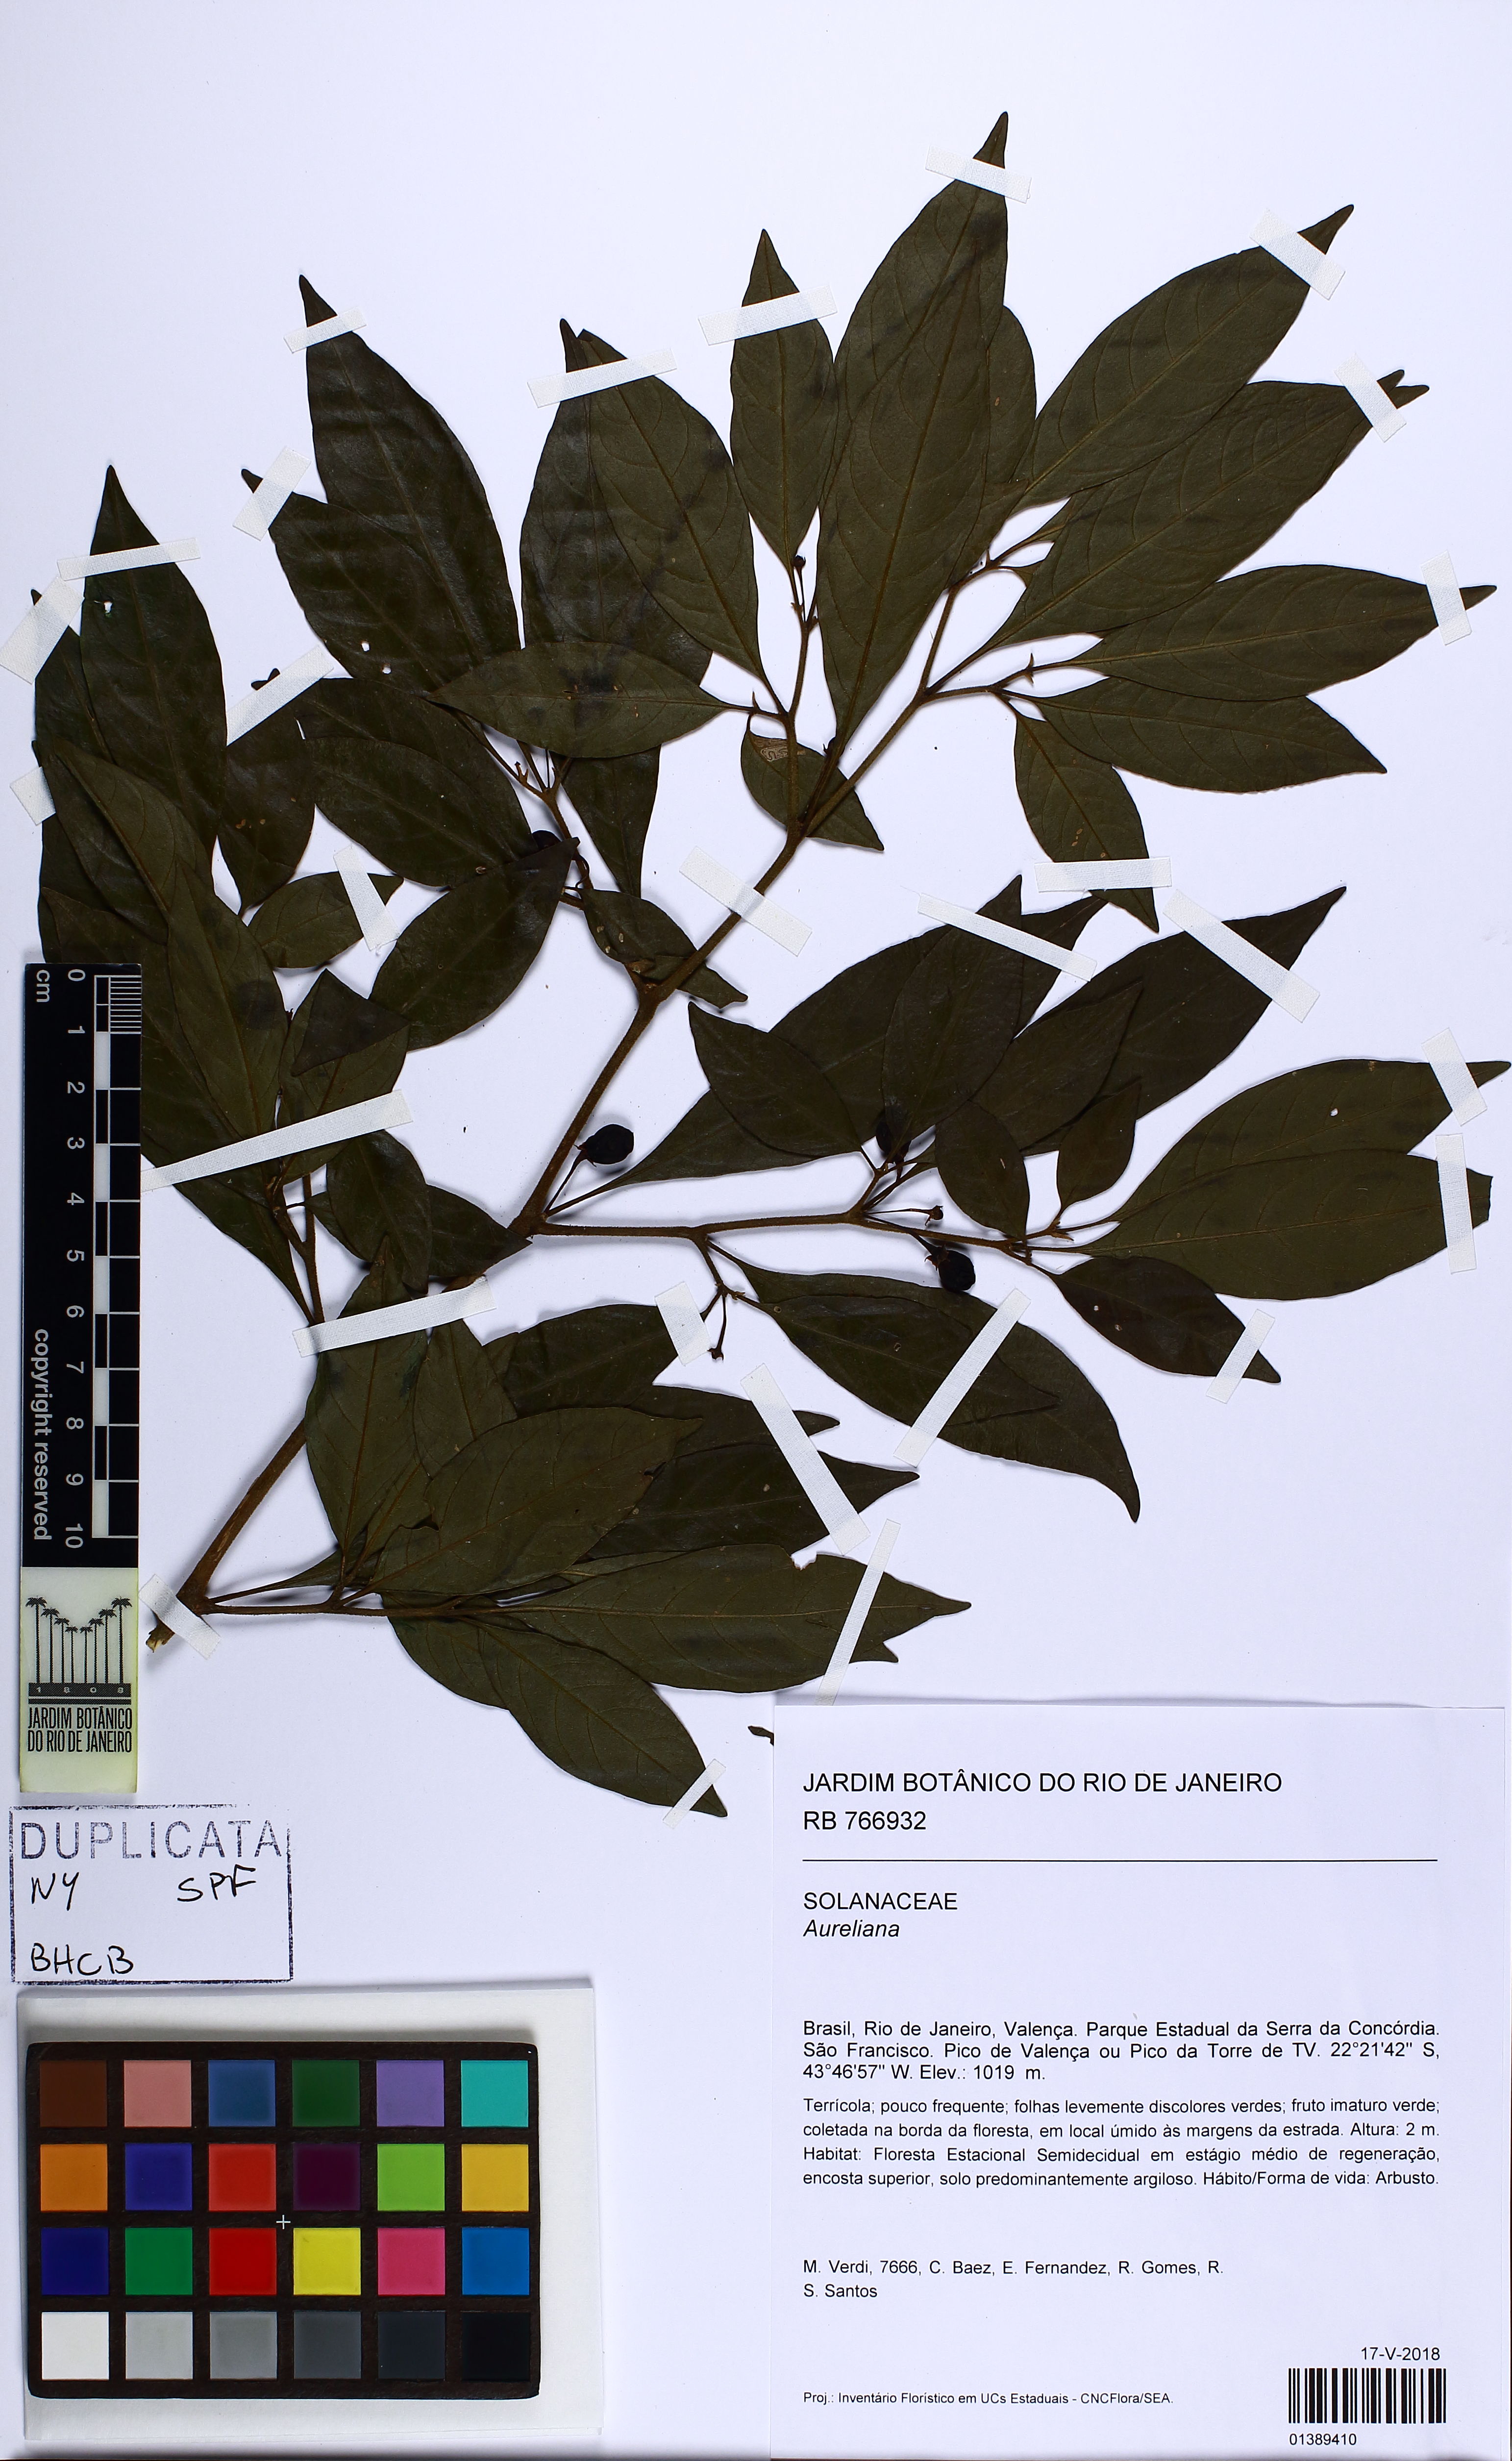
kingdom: Plantae
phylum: Tracheophyta
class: Magnoliopsida
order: Apiales
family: Araliaceae
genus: Aureliana
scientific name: Aureliana
